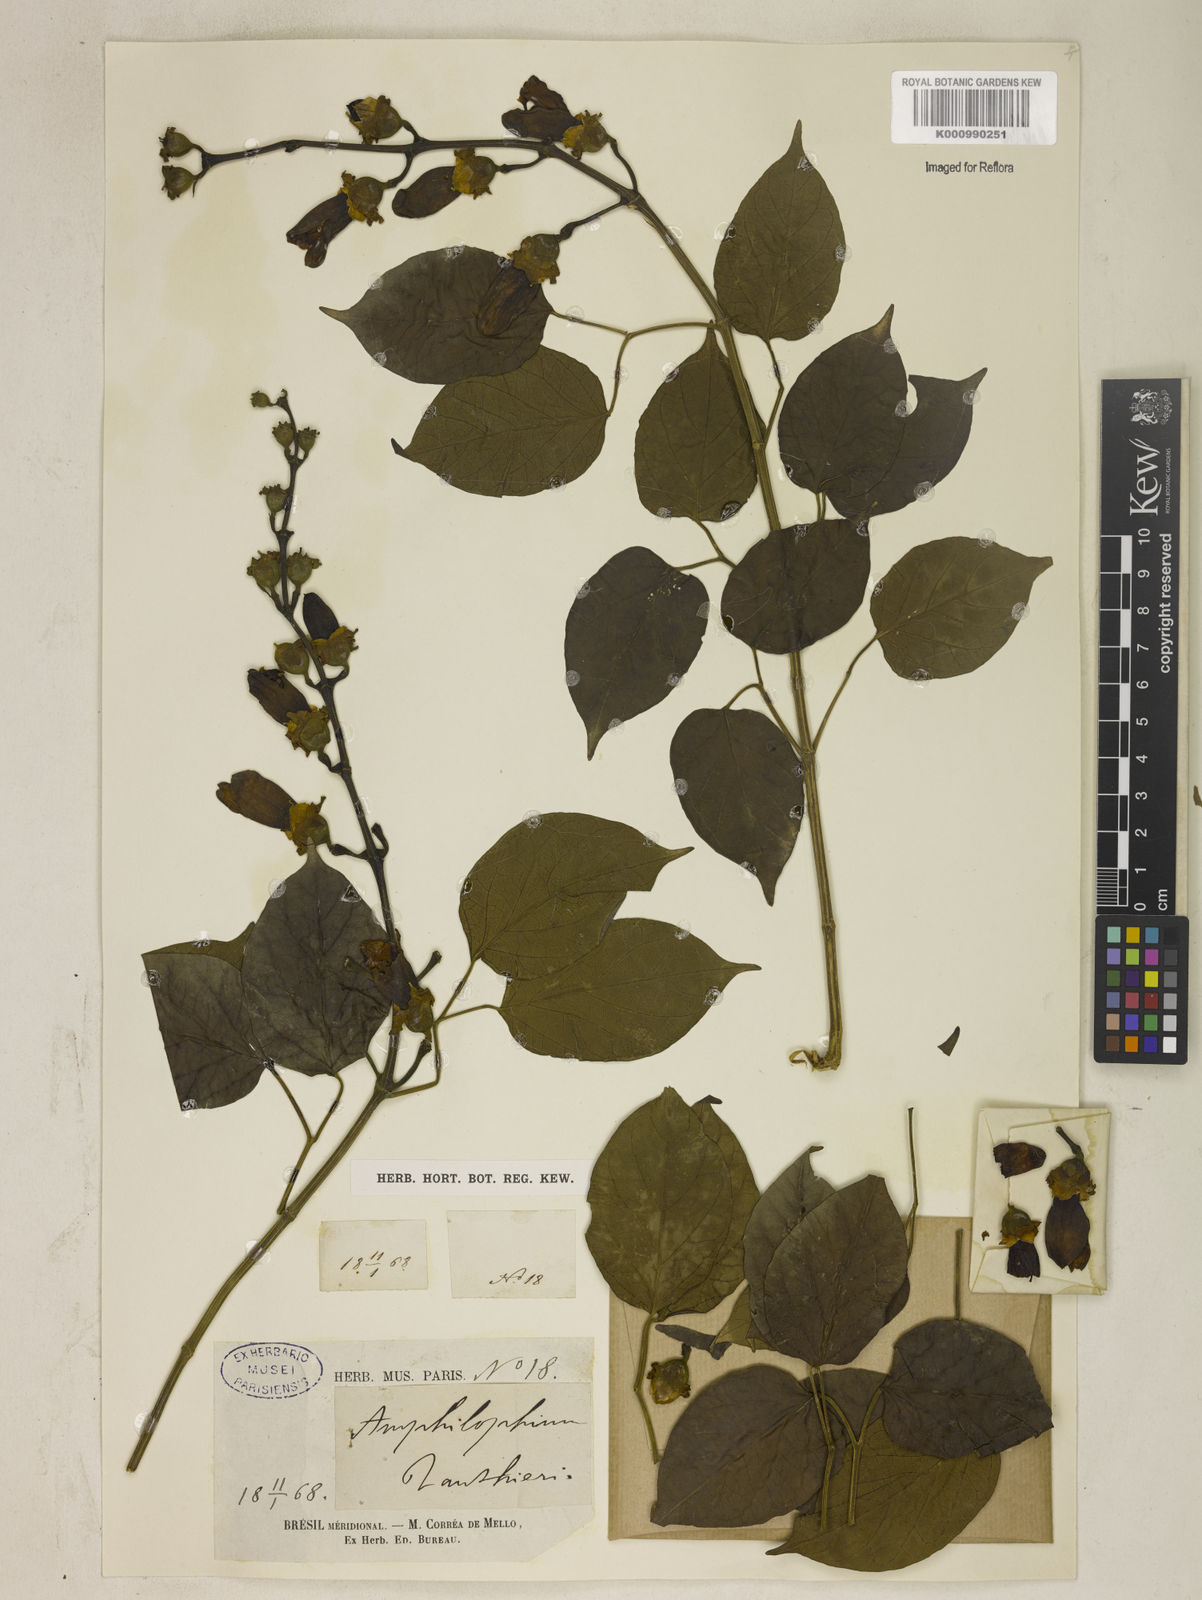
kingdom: Plantae
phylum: Tracheophyta
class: Magnoliopsida
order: Lamiales
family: Bignoniaceae
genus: Amphilophium
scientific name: Amphilophium paniculatum
